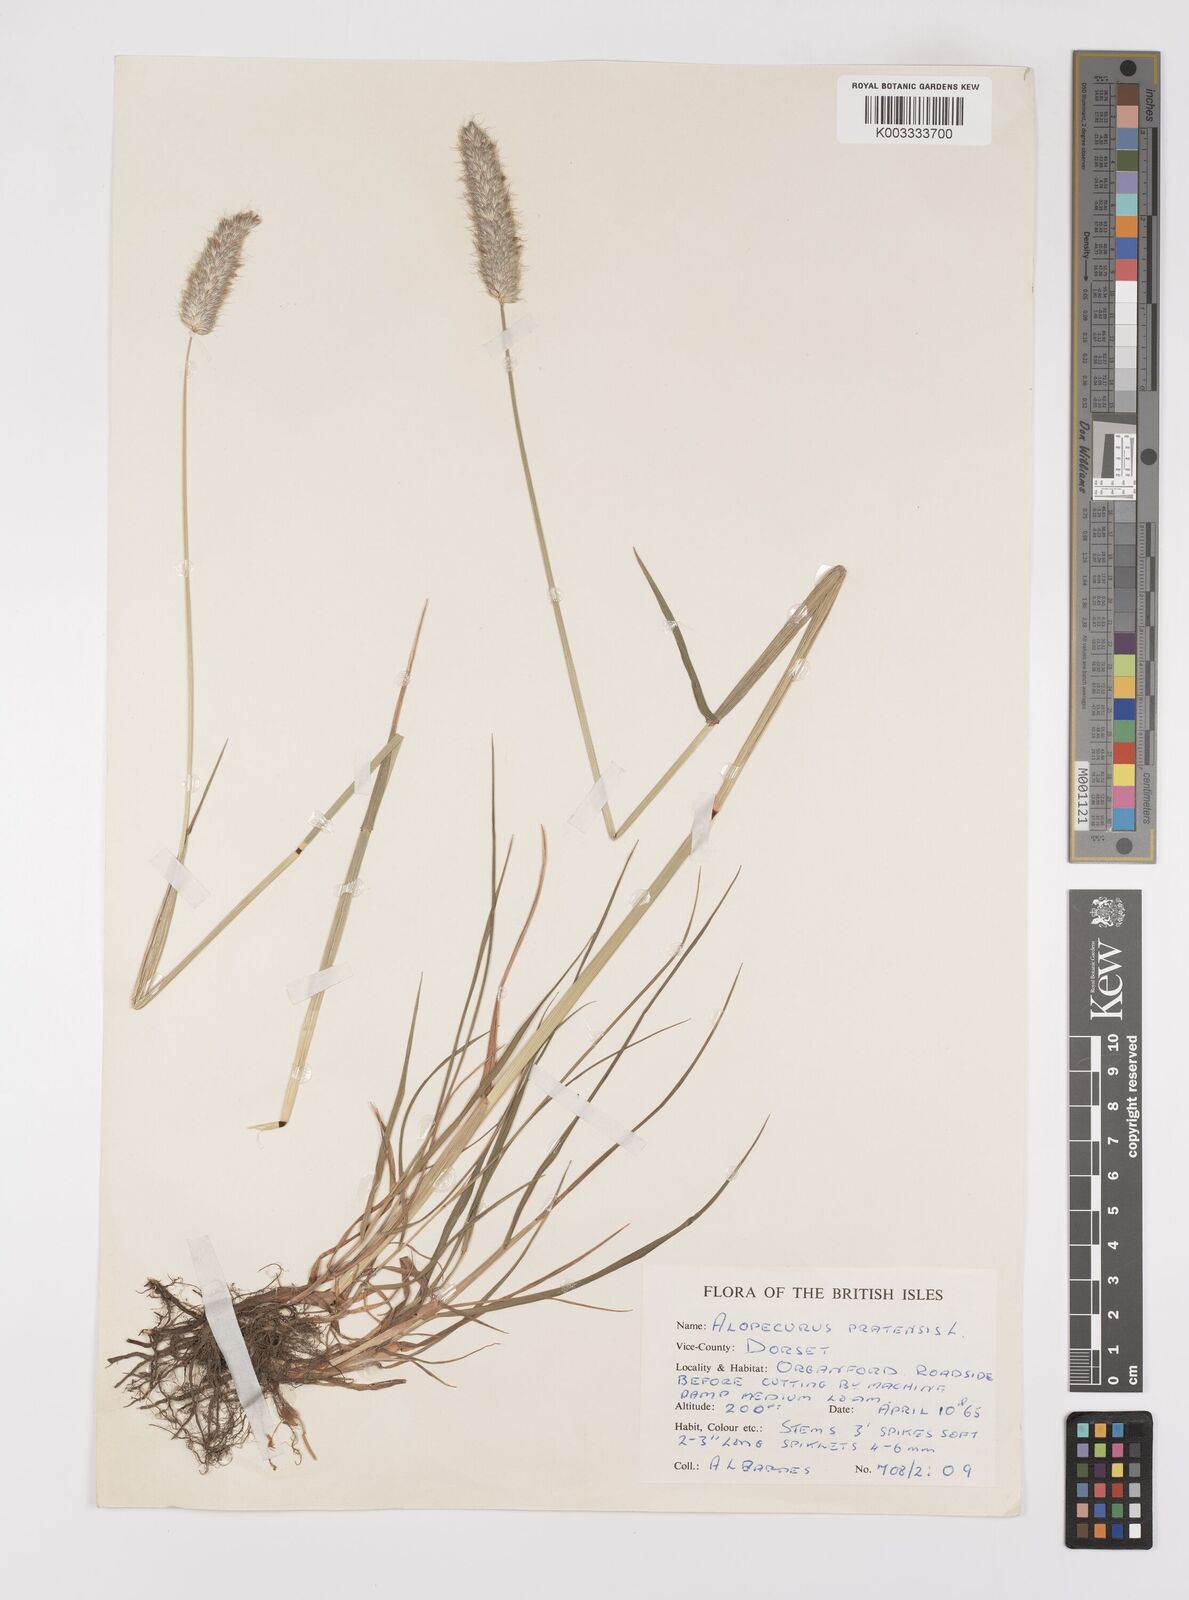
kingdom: Plantae
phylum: Tracheophyta
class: Liliopsida
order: Poales
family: Poaceae
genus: Alopecurus
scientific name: Alopecurus pratensis
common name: Meadow foxtail
